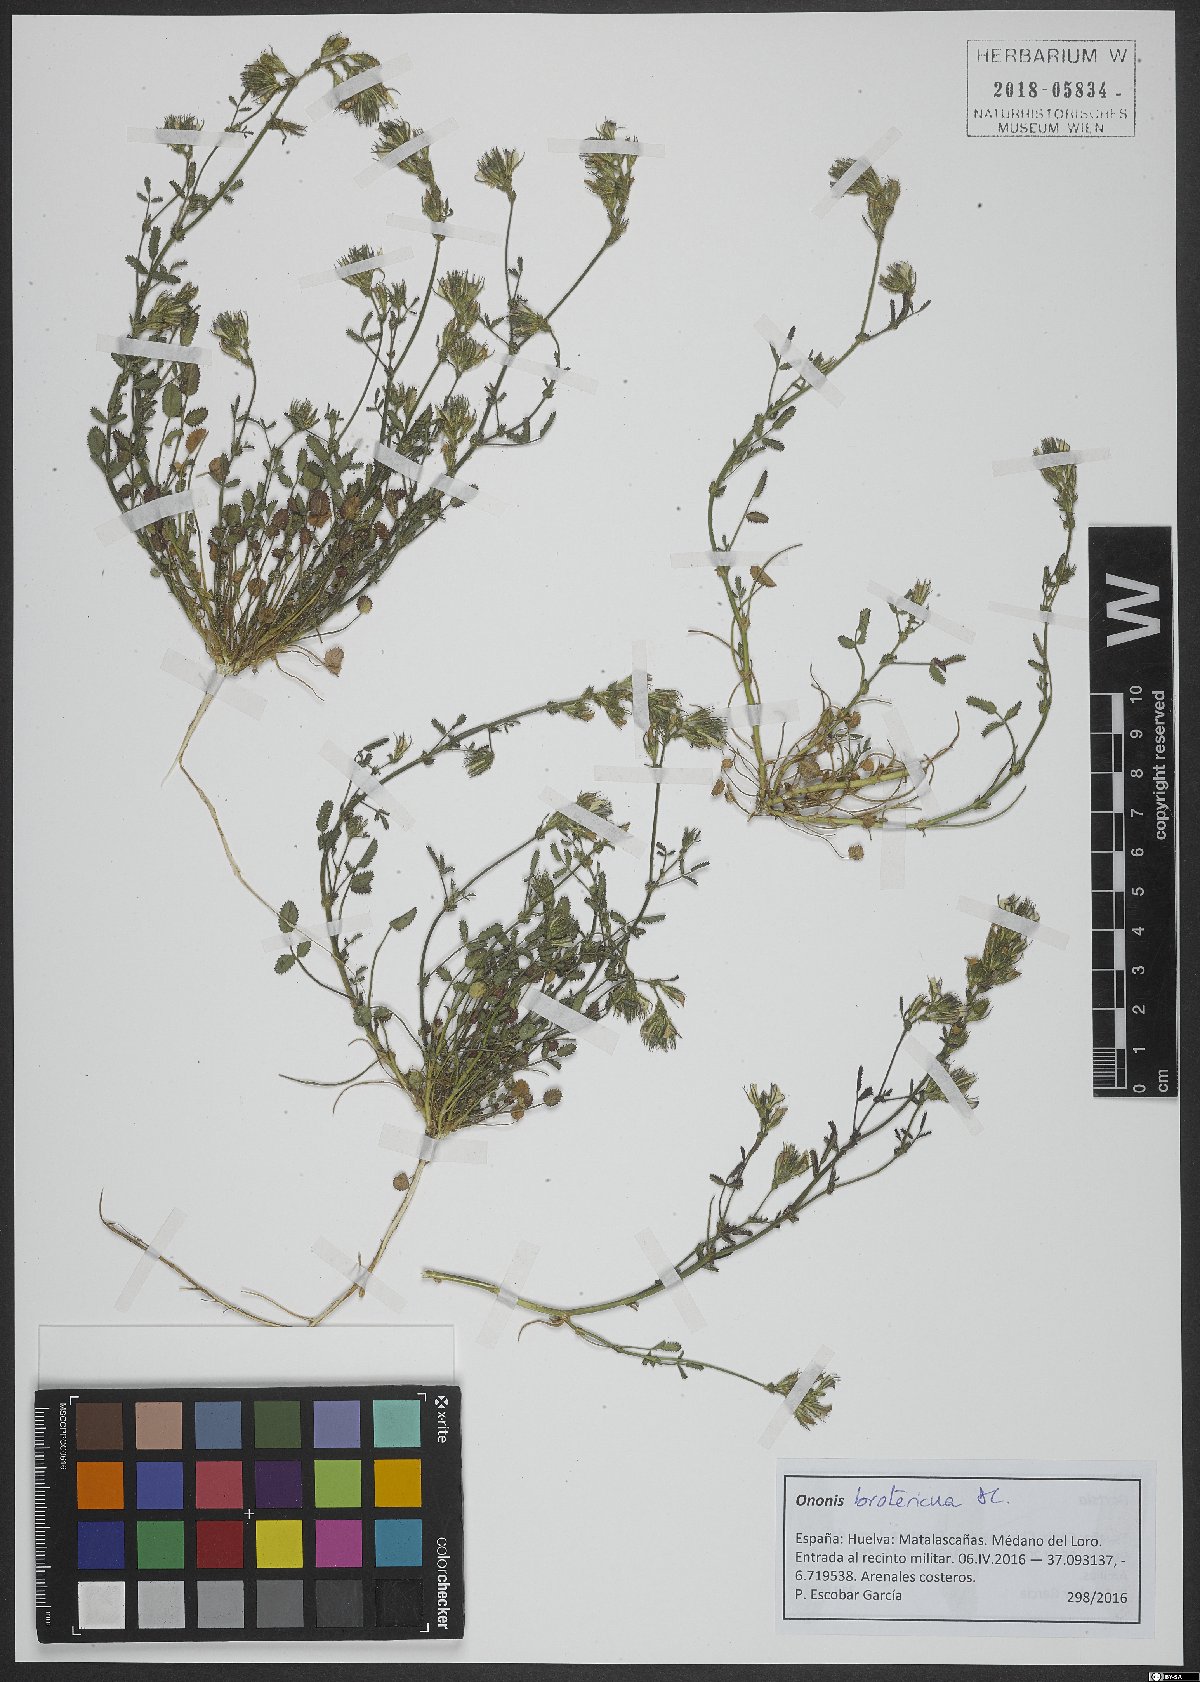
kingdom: Plantae
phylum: Tracheophyta
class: Magnoliopsida
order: Fabales
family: Fabaceae
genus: Ononis
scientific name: Ononis baetica
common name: Andalucian restharrow
